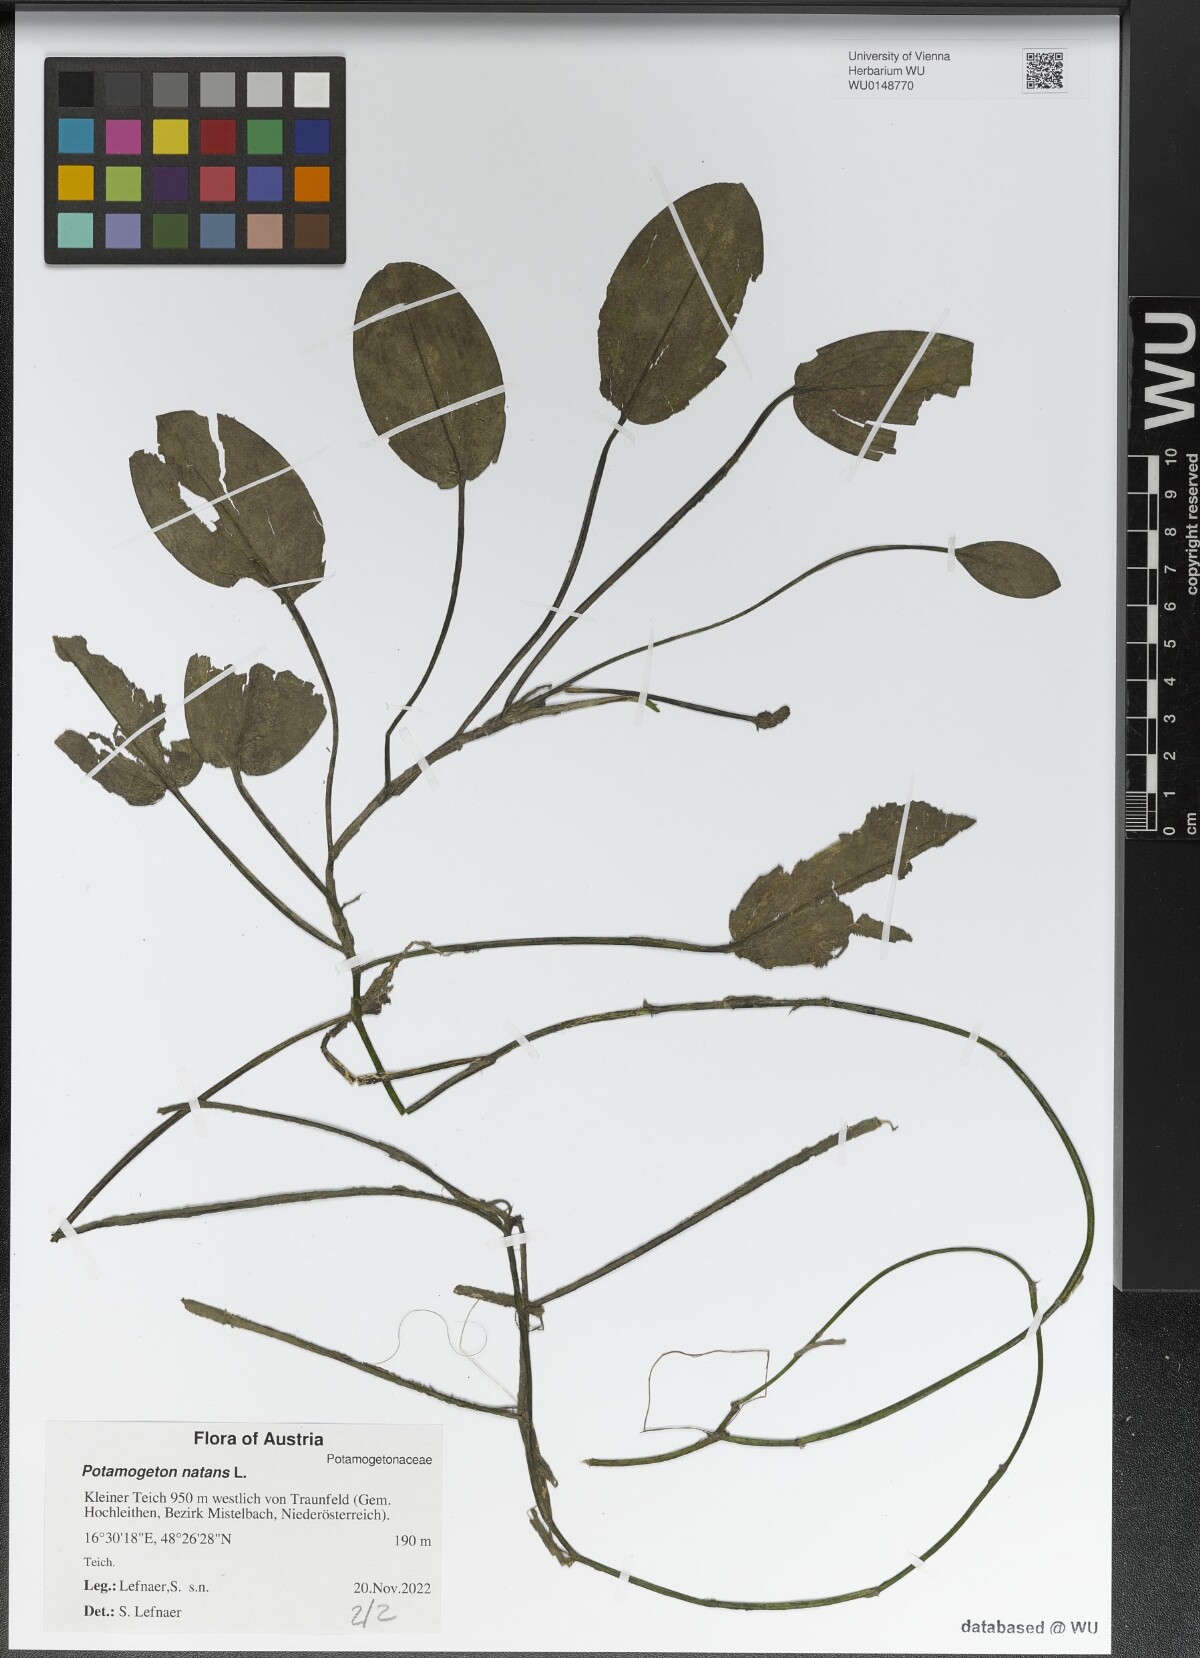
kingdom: Plantae
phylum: Tracheophyta
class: Liliopsida
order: Alismatales
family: Potamogetonaceae
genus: Potamogeton
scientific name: Potamogeton natans
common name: Broad-leaved pondweed
